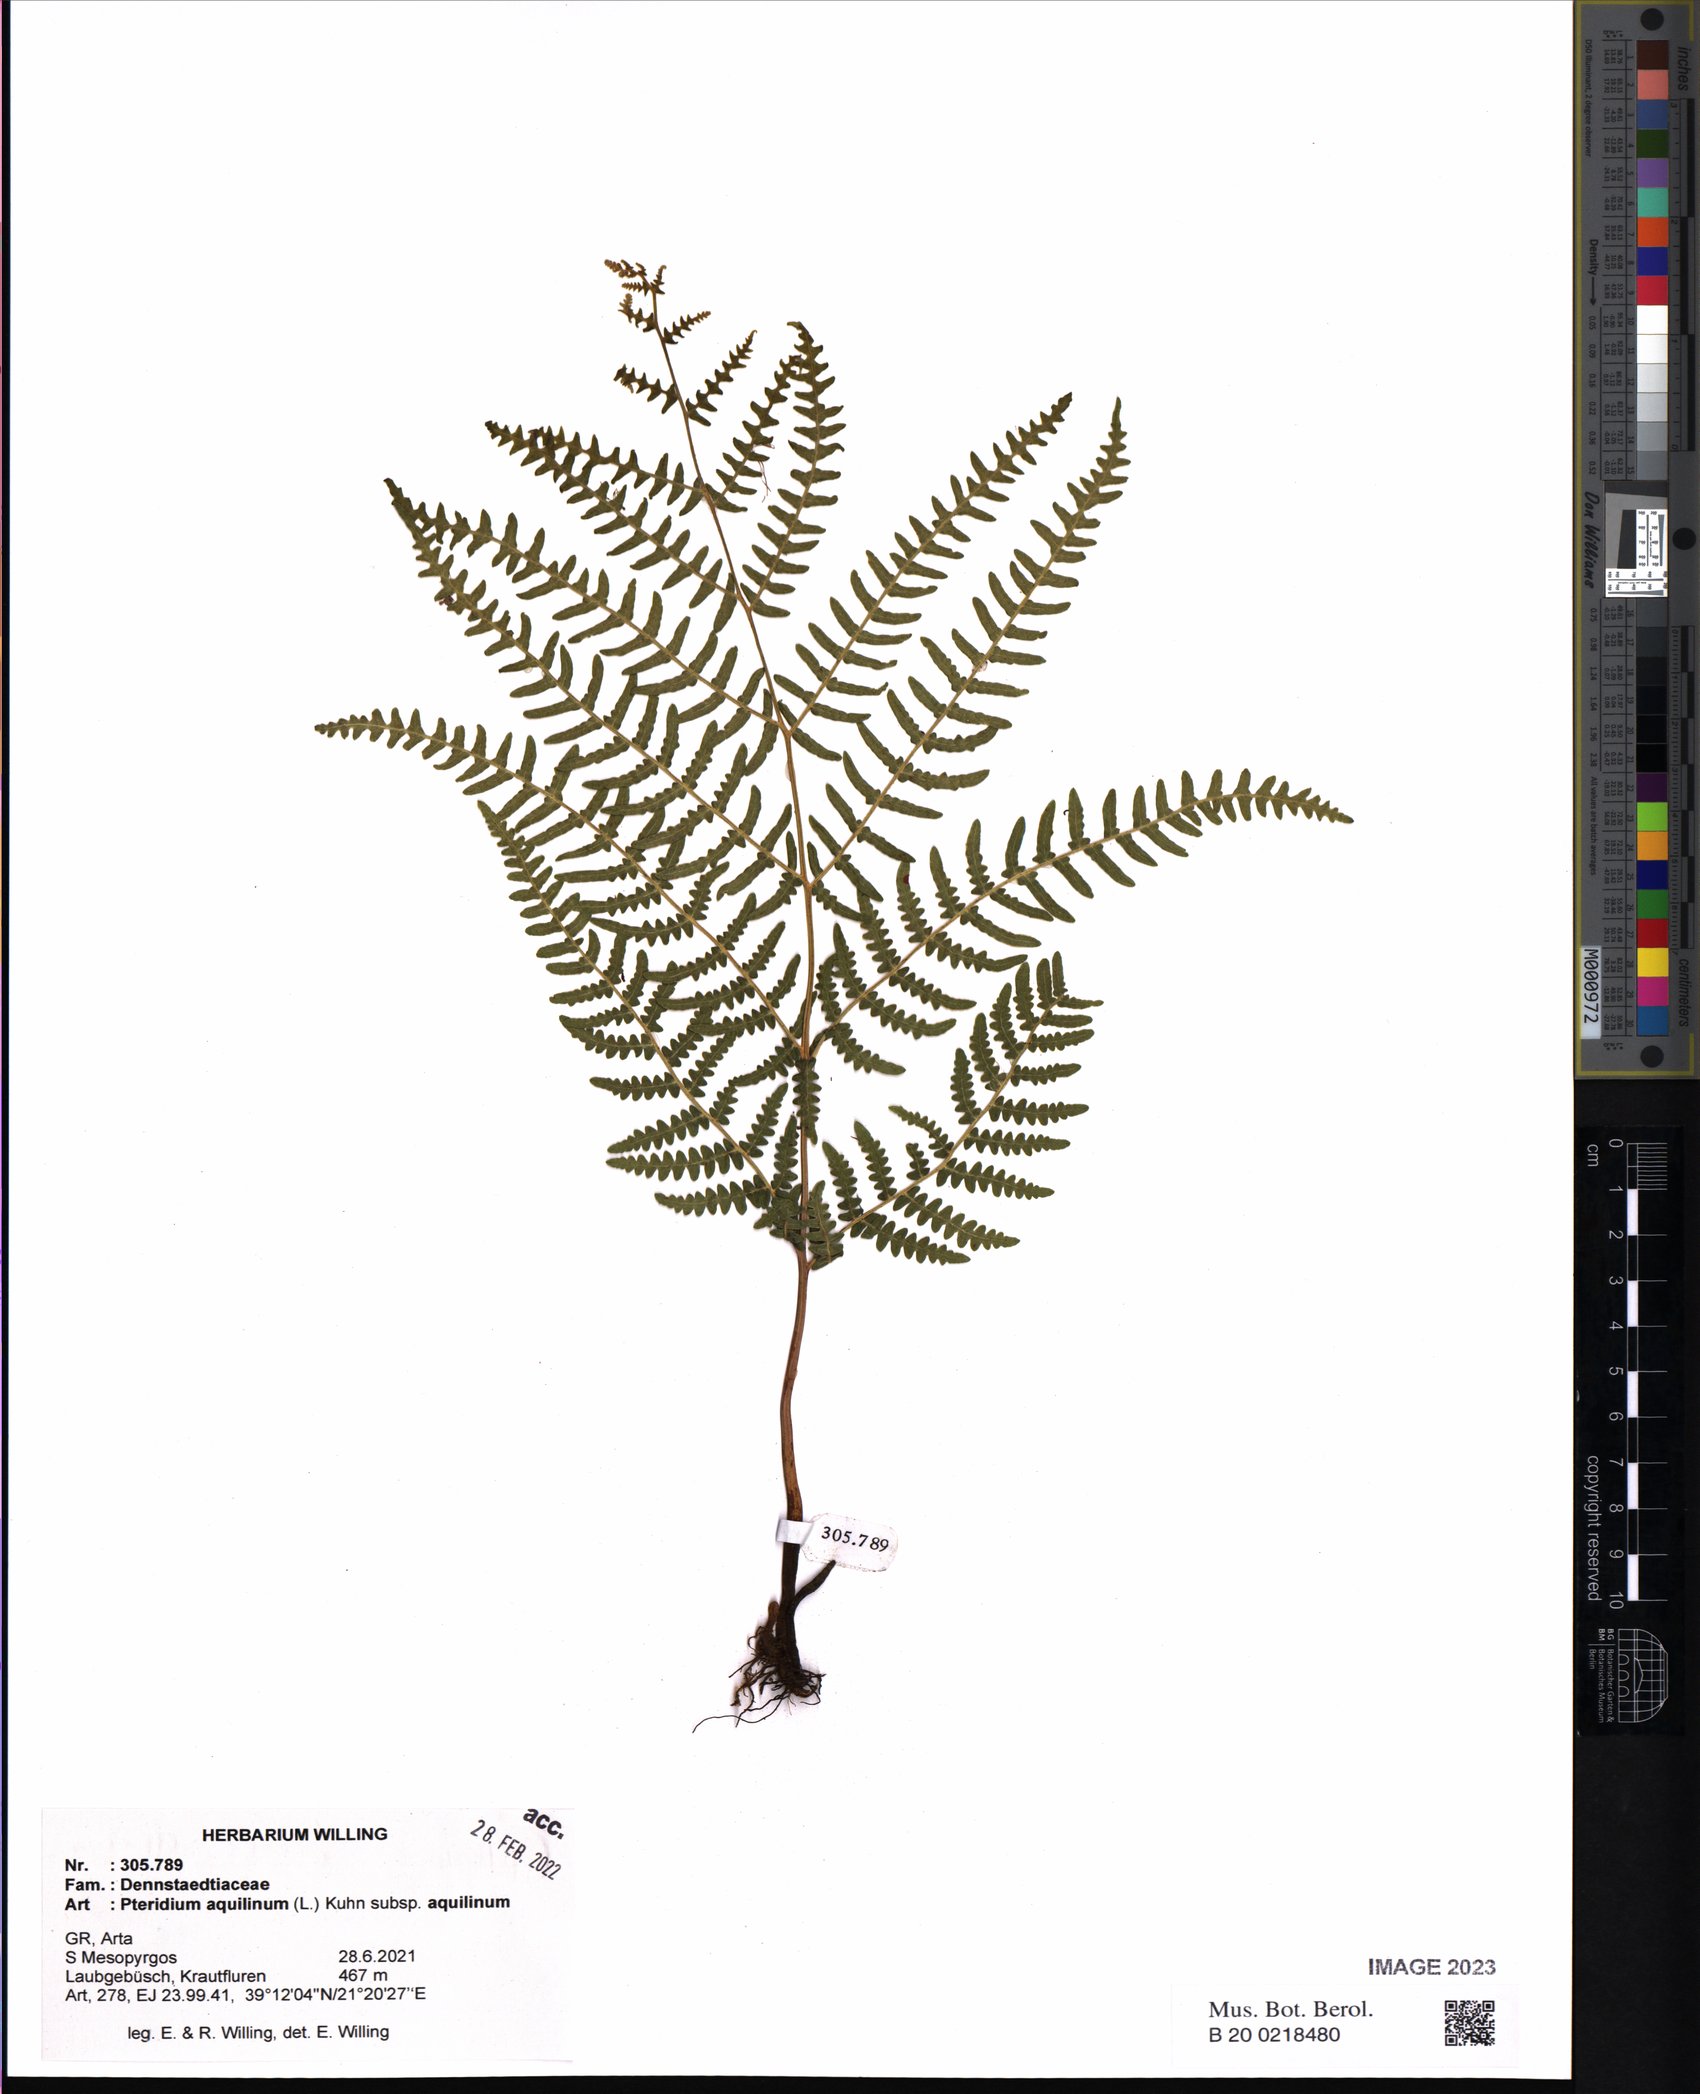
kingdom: Plantae
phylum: Tracheophyta
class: Polypodiopsida
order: Polypodiales
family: Dennstaedtiaceae
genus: Pteridium
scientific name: Pteridium aquilinum
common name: Bracken
